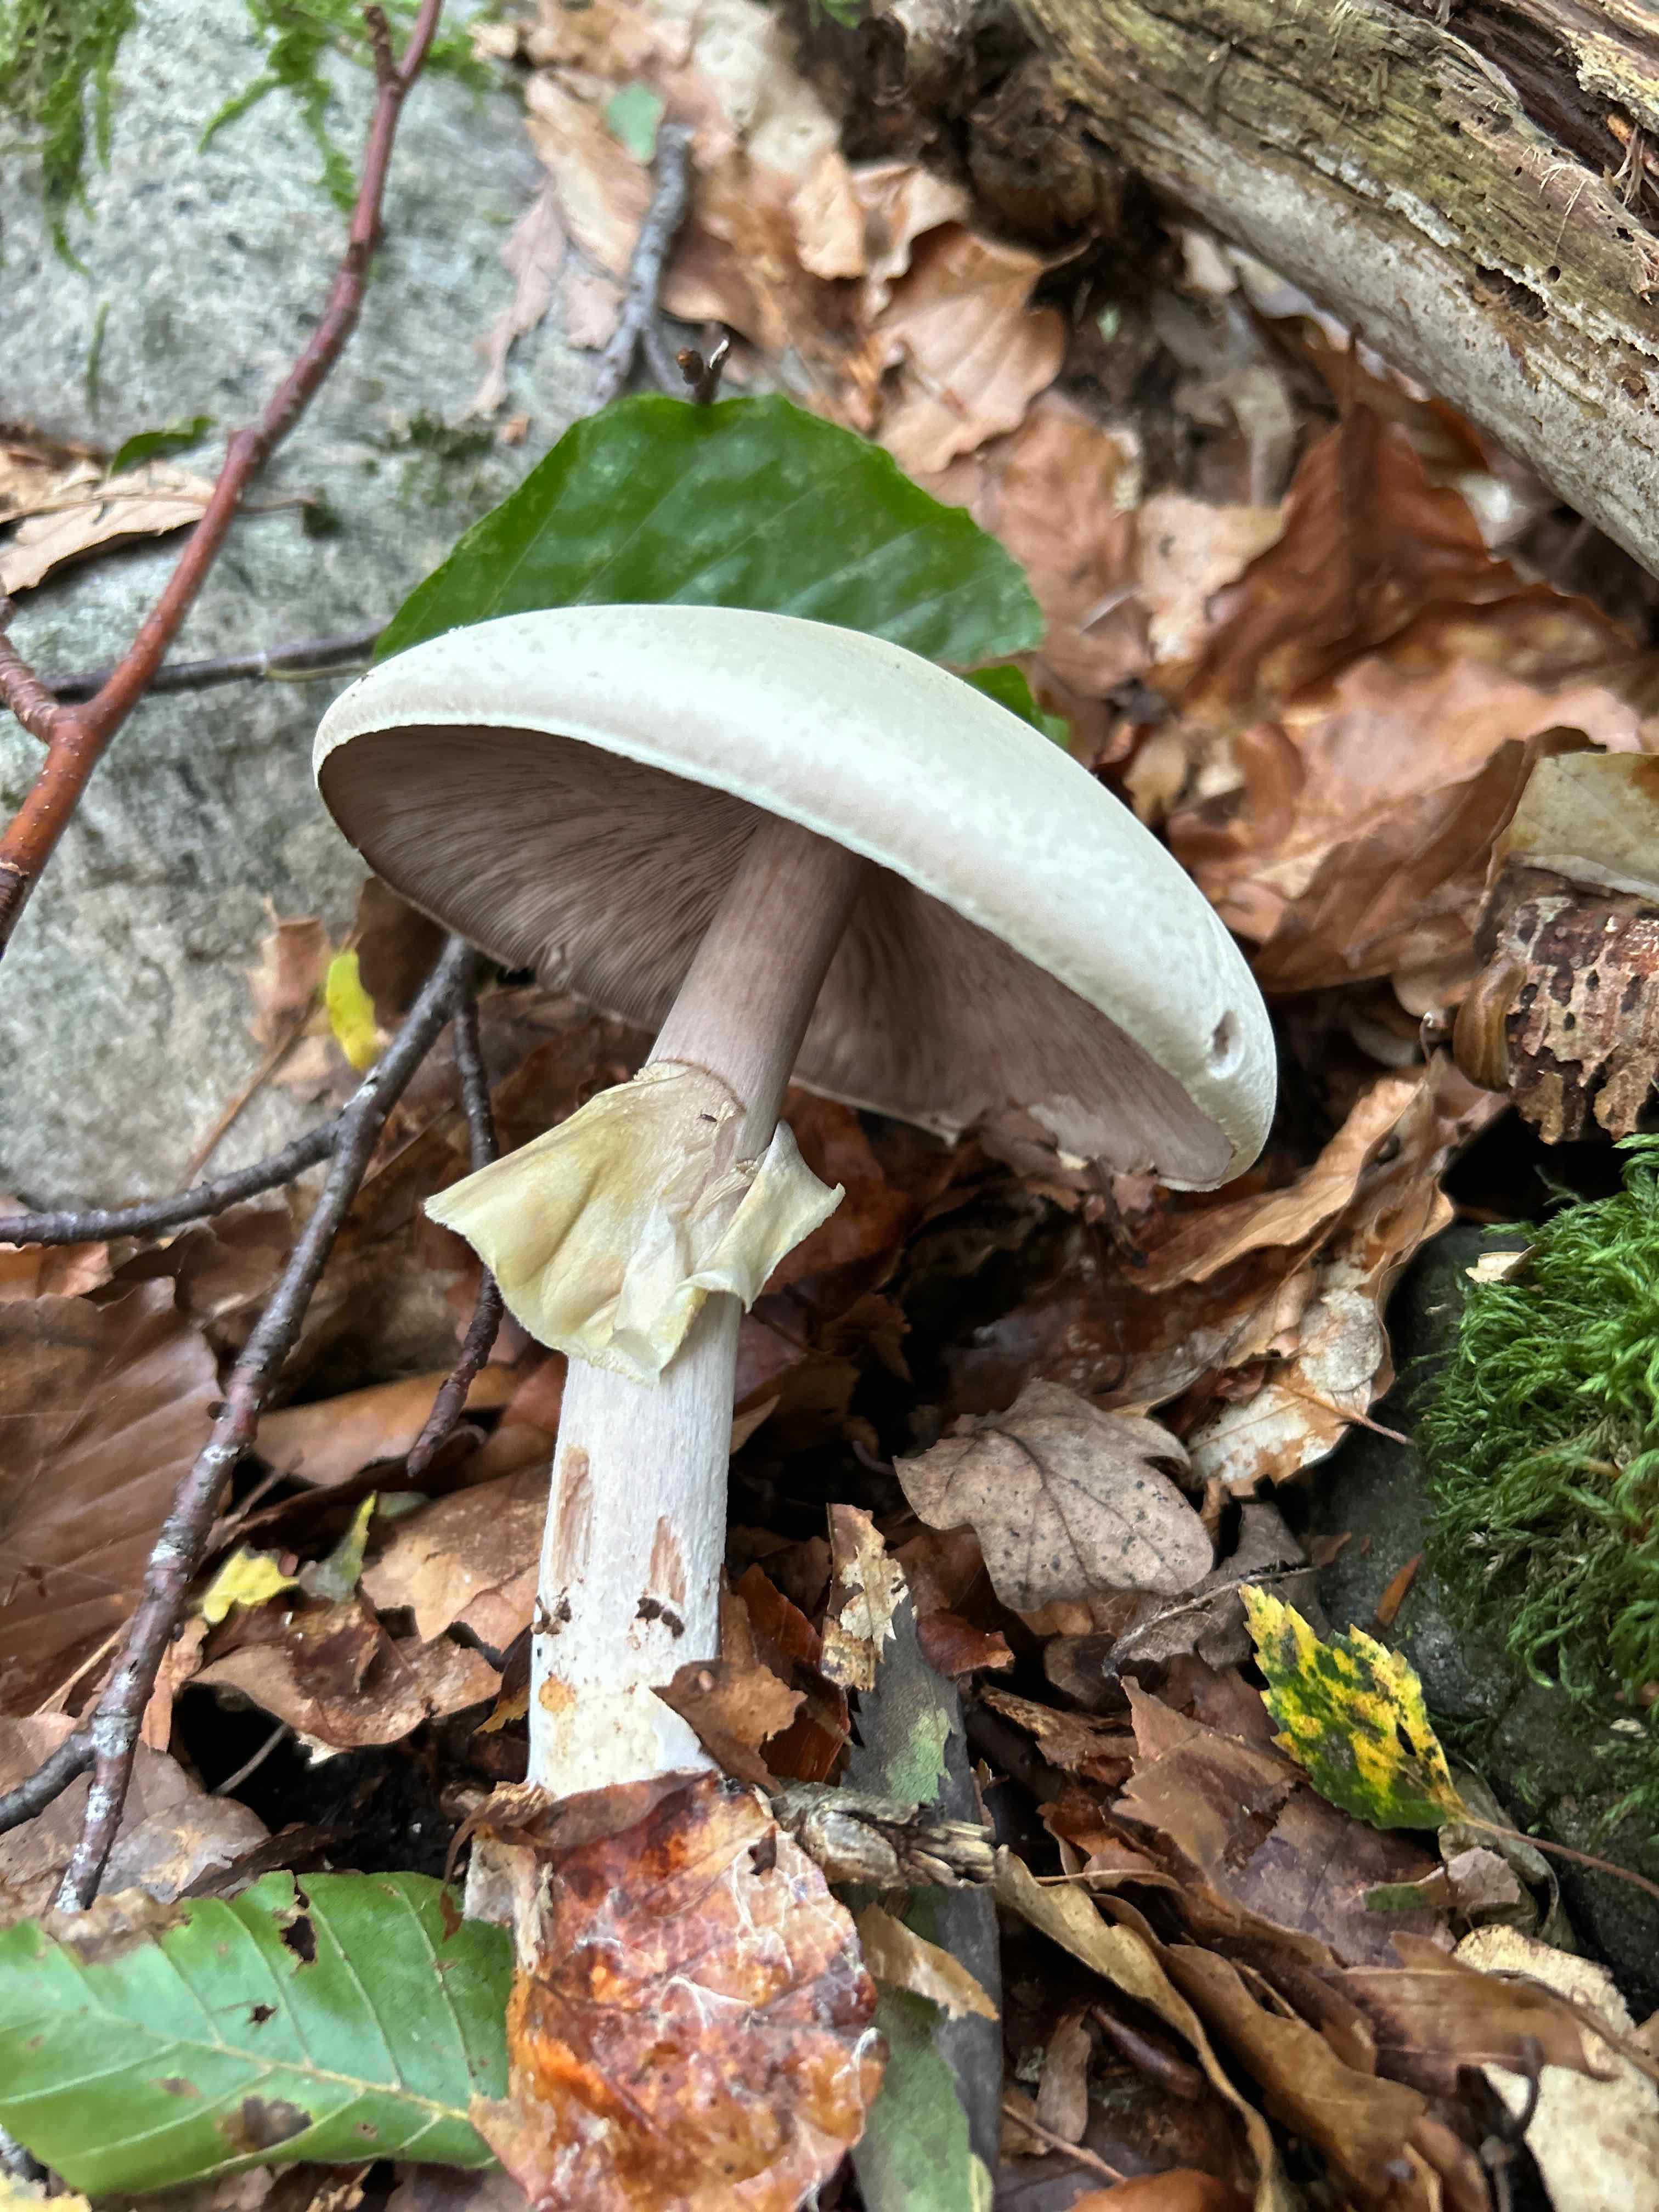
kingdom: Fungi
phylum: Basidiomycota
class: Agaricomycetes
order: Agaricales
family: Agaricaceae
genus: Agaricus
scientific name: Agaricus
